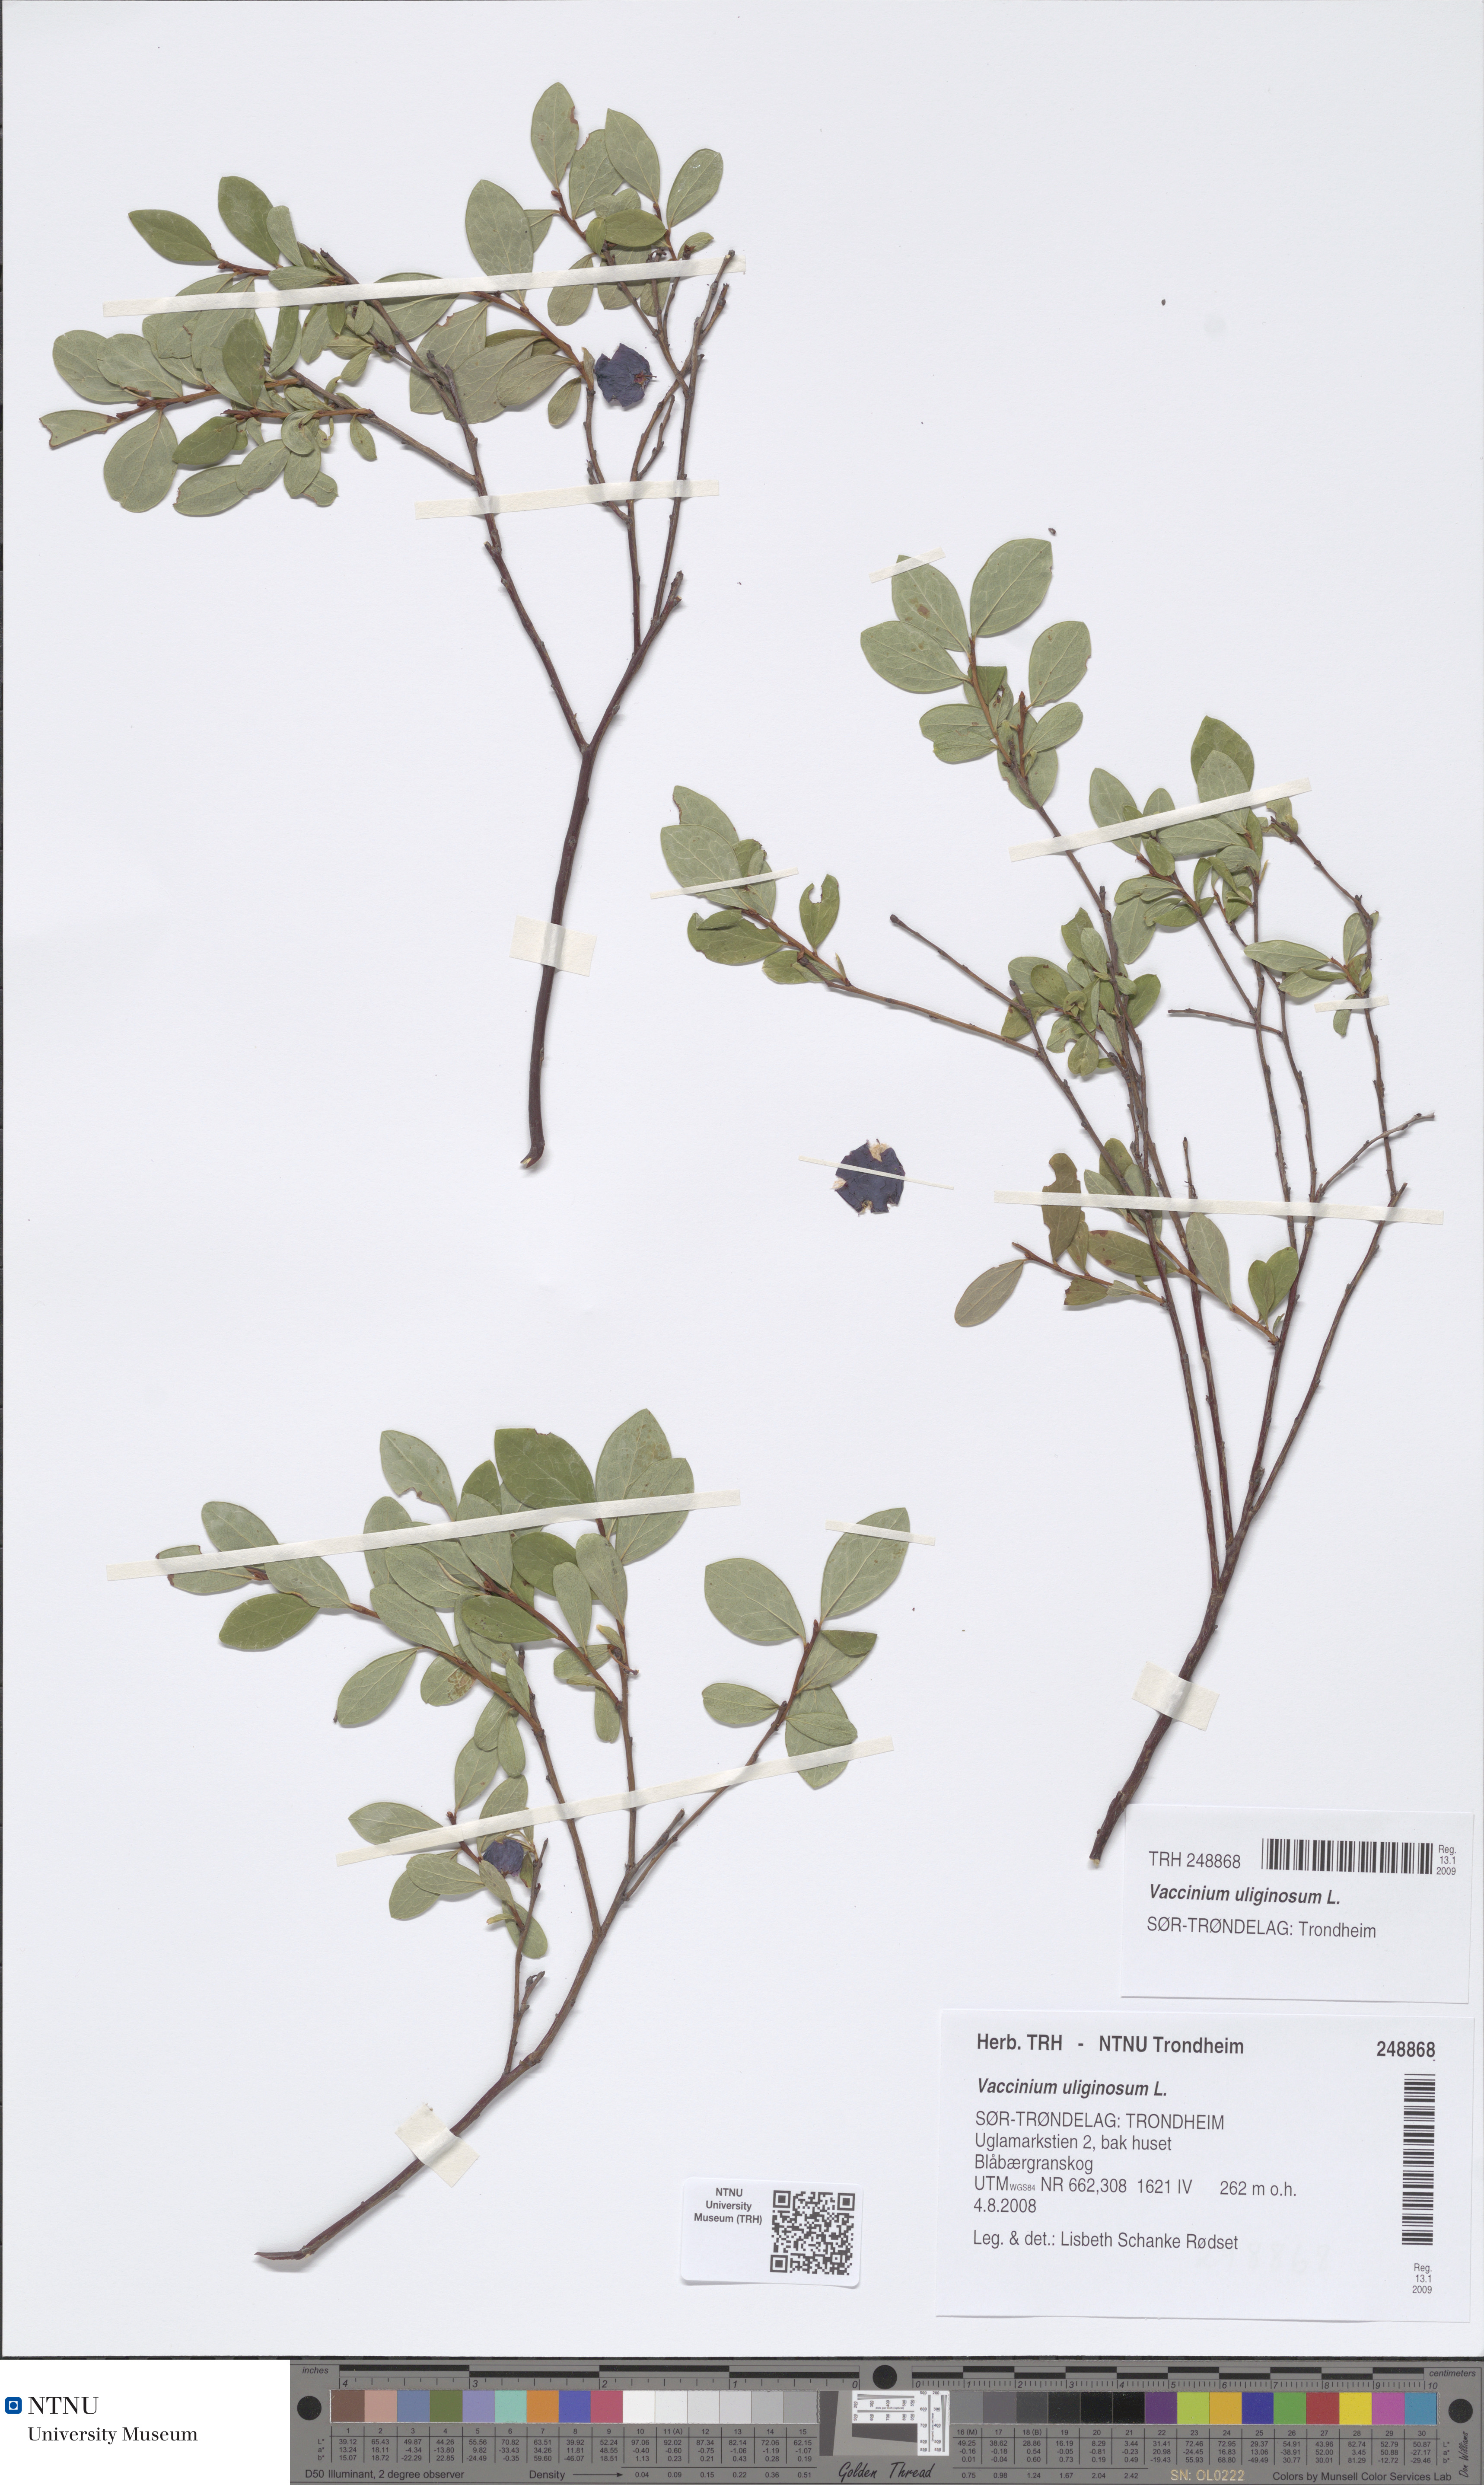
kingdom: Plantae
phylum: Tracheophyta
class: Magnoliopsida
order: Ericales
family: Ericaceae
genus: Vaccinium
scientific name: Vaccinium uliginosum
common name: Bog bilberry
